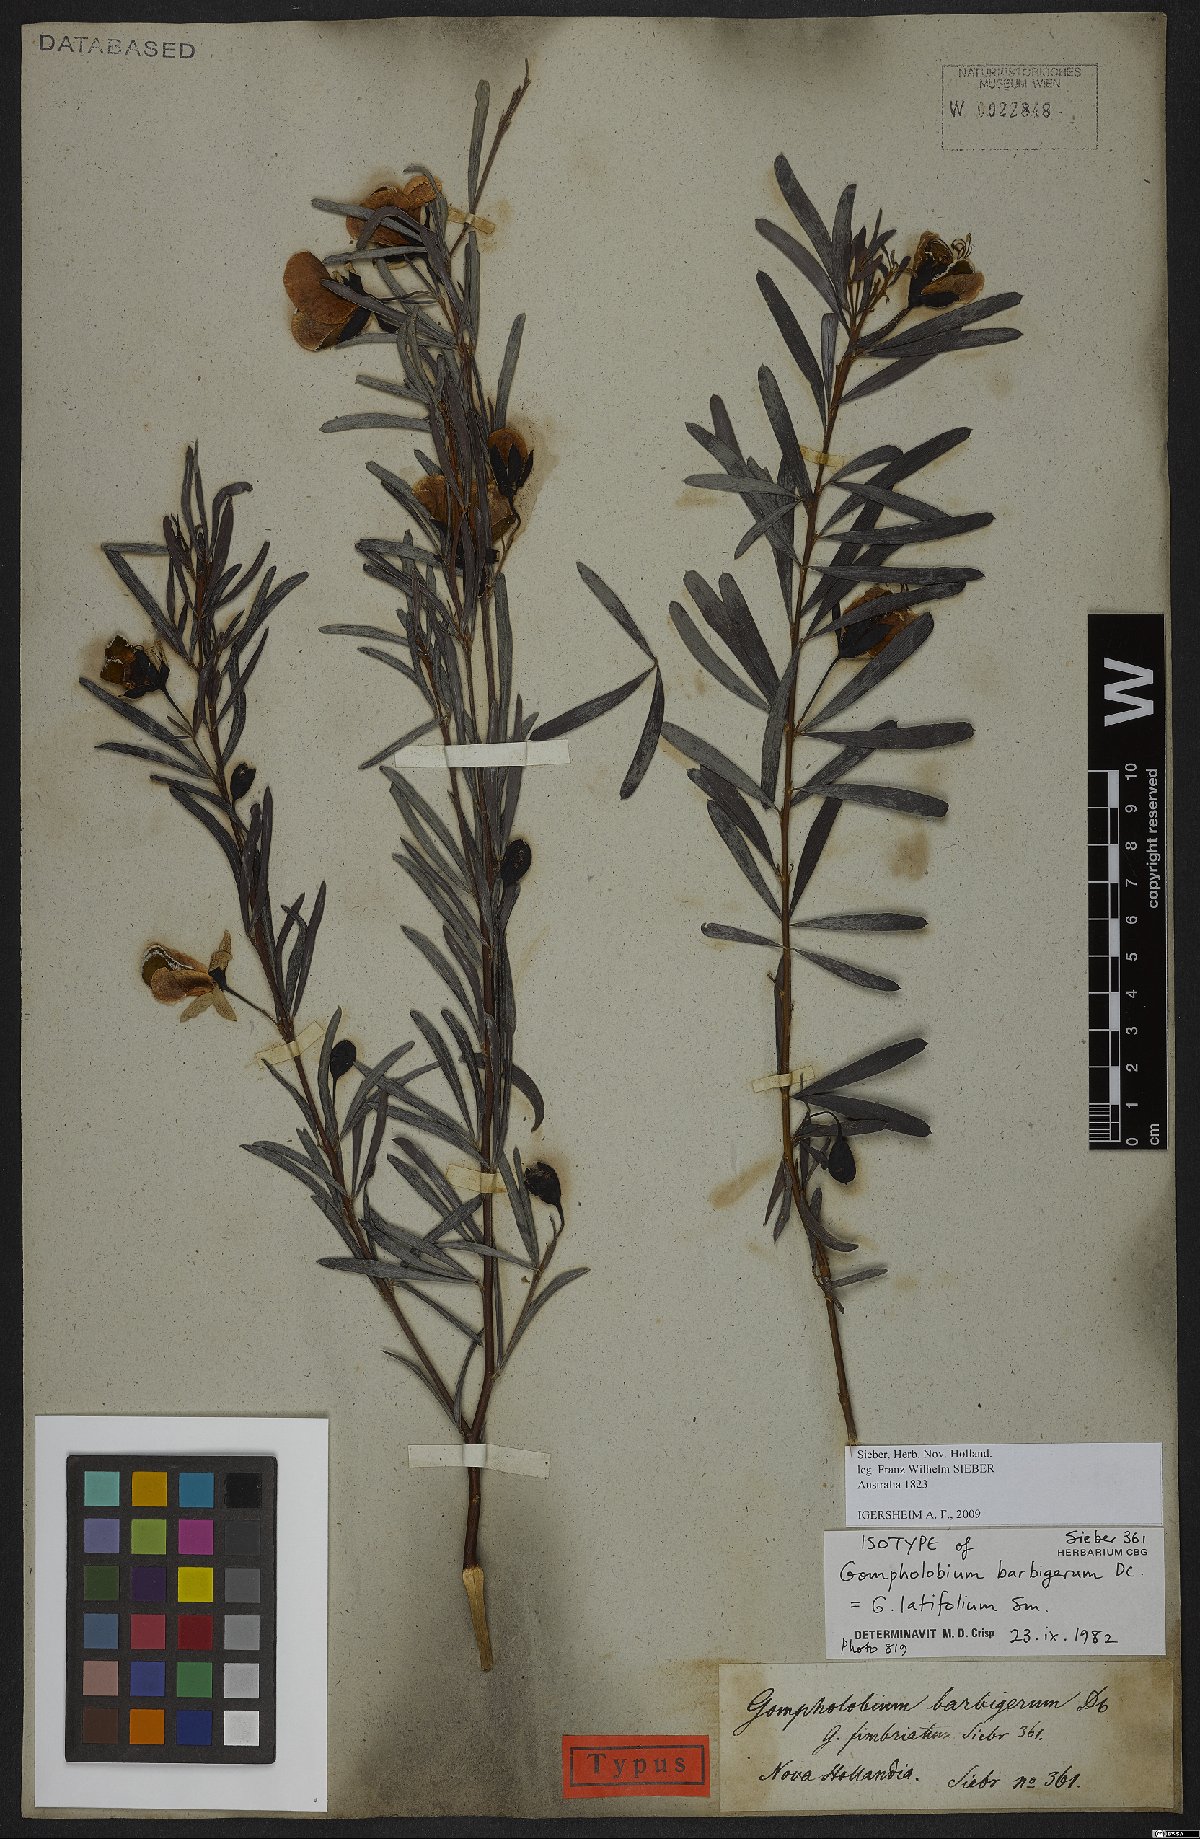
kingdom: Plantae
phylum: Tracheophyta
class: Magnoliopsida
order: Fabales
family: Fabaceae
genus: Gompholobium
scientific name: Gompholobium latifolium
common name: Broadleaf wedge-pea
